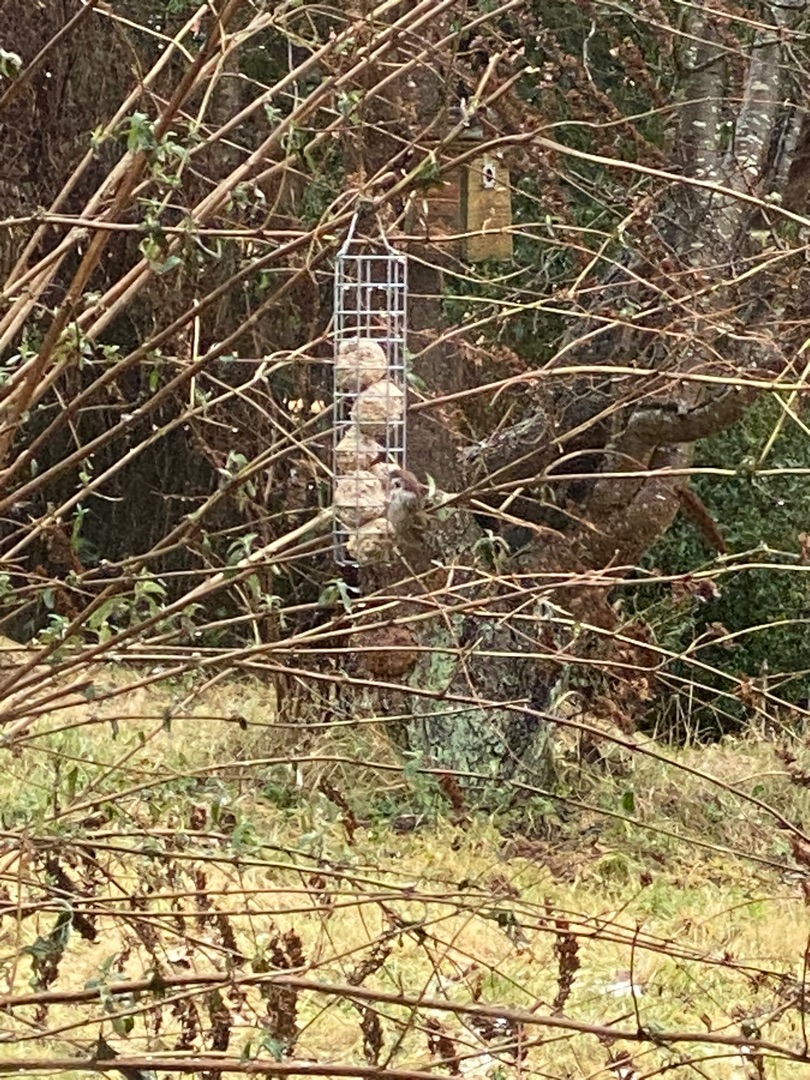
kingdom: Animalia
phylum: Chordata
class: Aves
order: Passeriformes
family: Passeridae
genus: Passer
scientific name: Passer montanus
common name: Skovspurv
